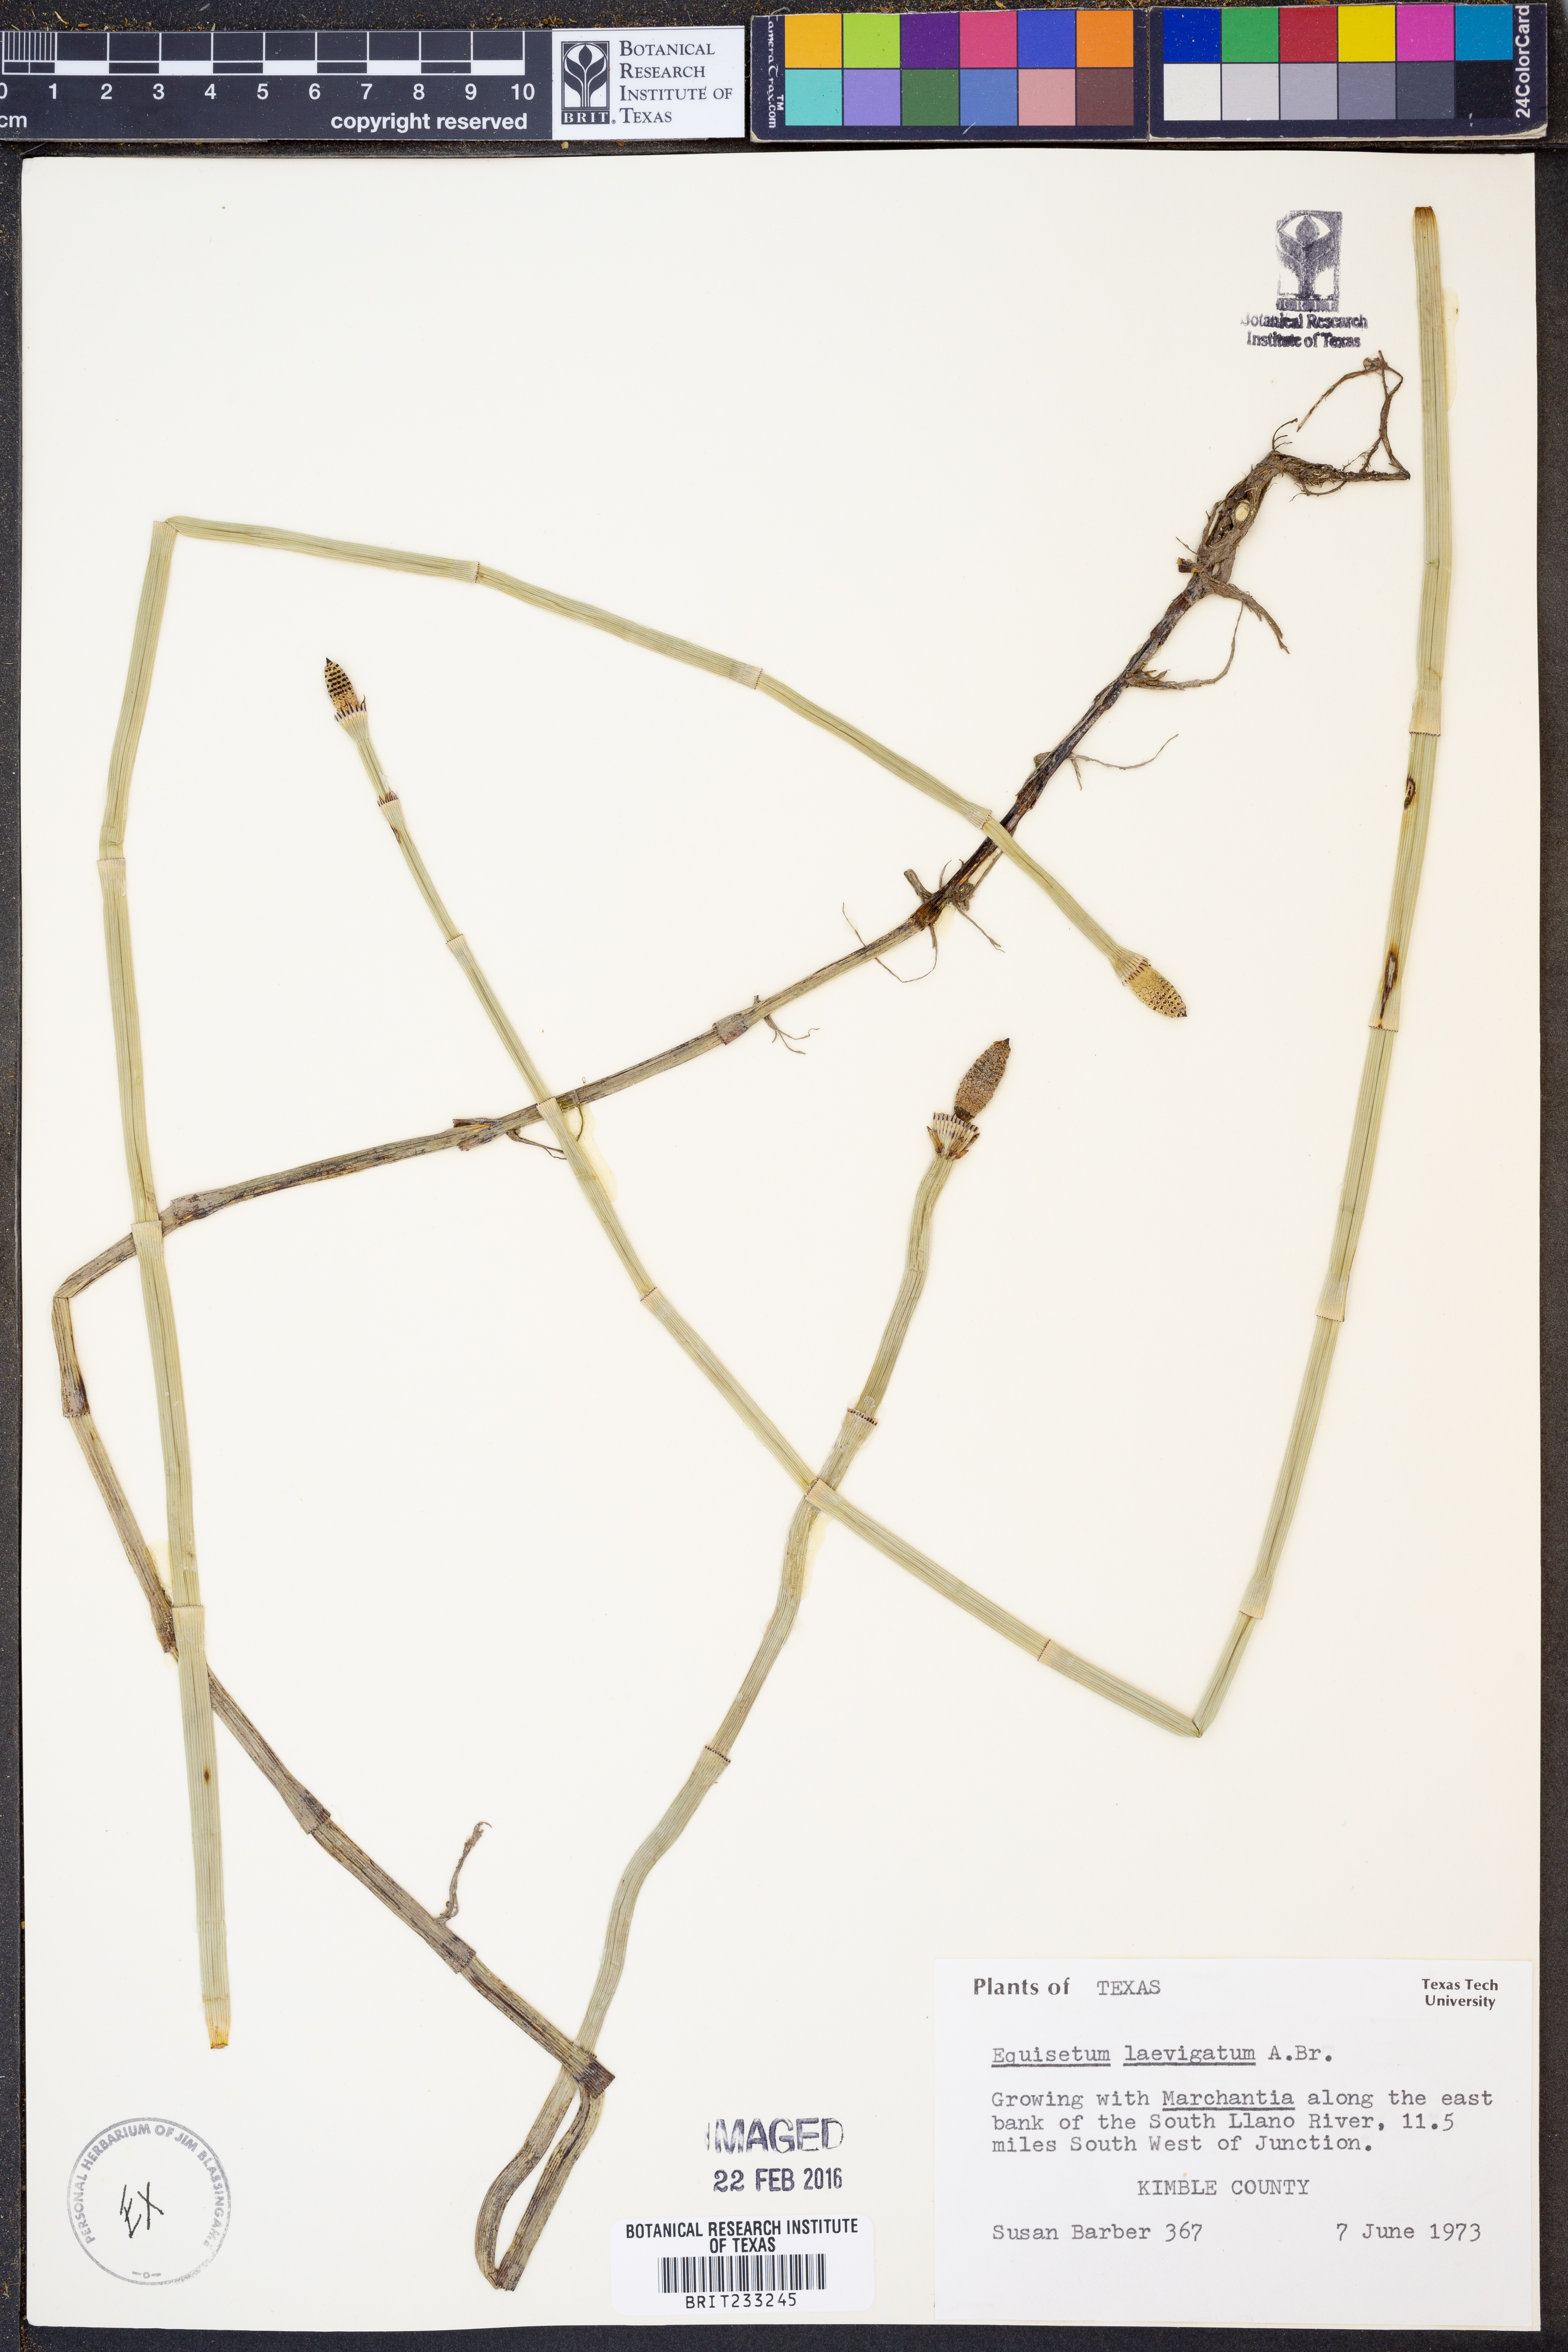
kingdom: Plantae
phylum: Tracheophyta
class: Polypodiopsida
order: Equisetales
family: Equisetaceae
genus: Equisetum
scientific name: Equisetum laevigatum
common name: Smooth scouring-rush
